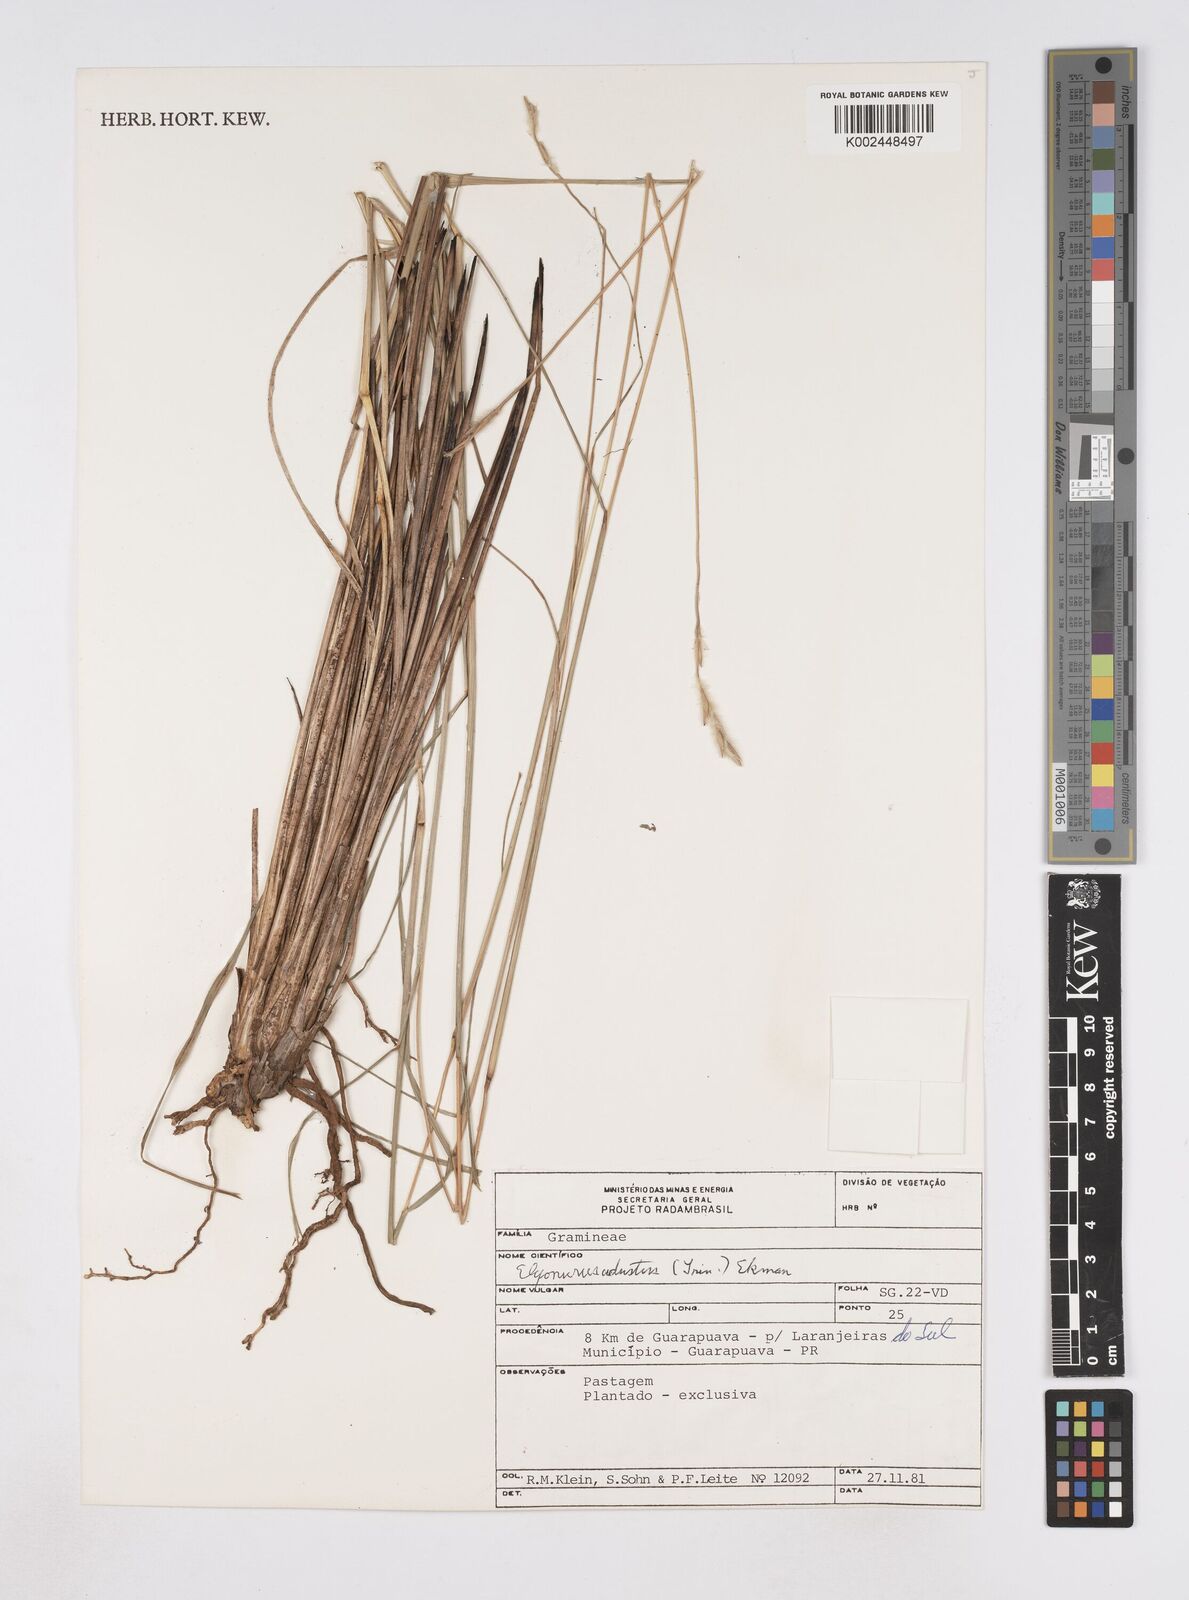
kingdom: Plantae
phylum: Tracheophyta
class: Liliopsida
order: Poales
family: Poaceae
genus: Elionurus
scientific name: Elionurus muticus
